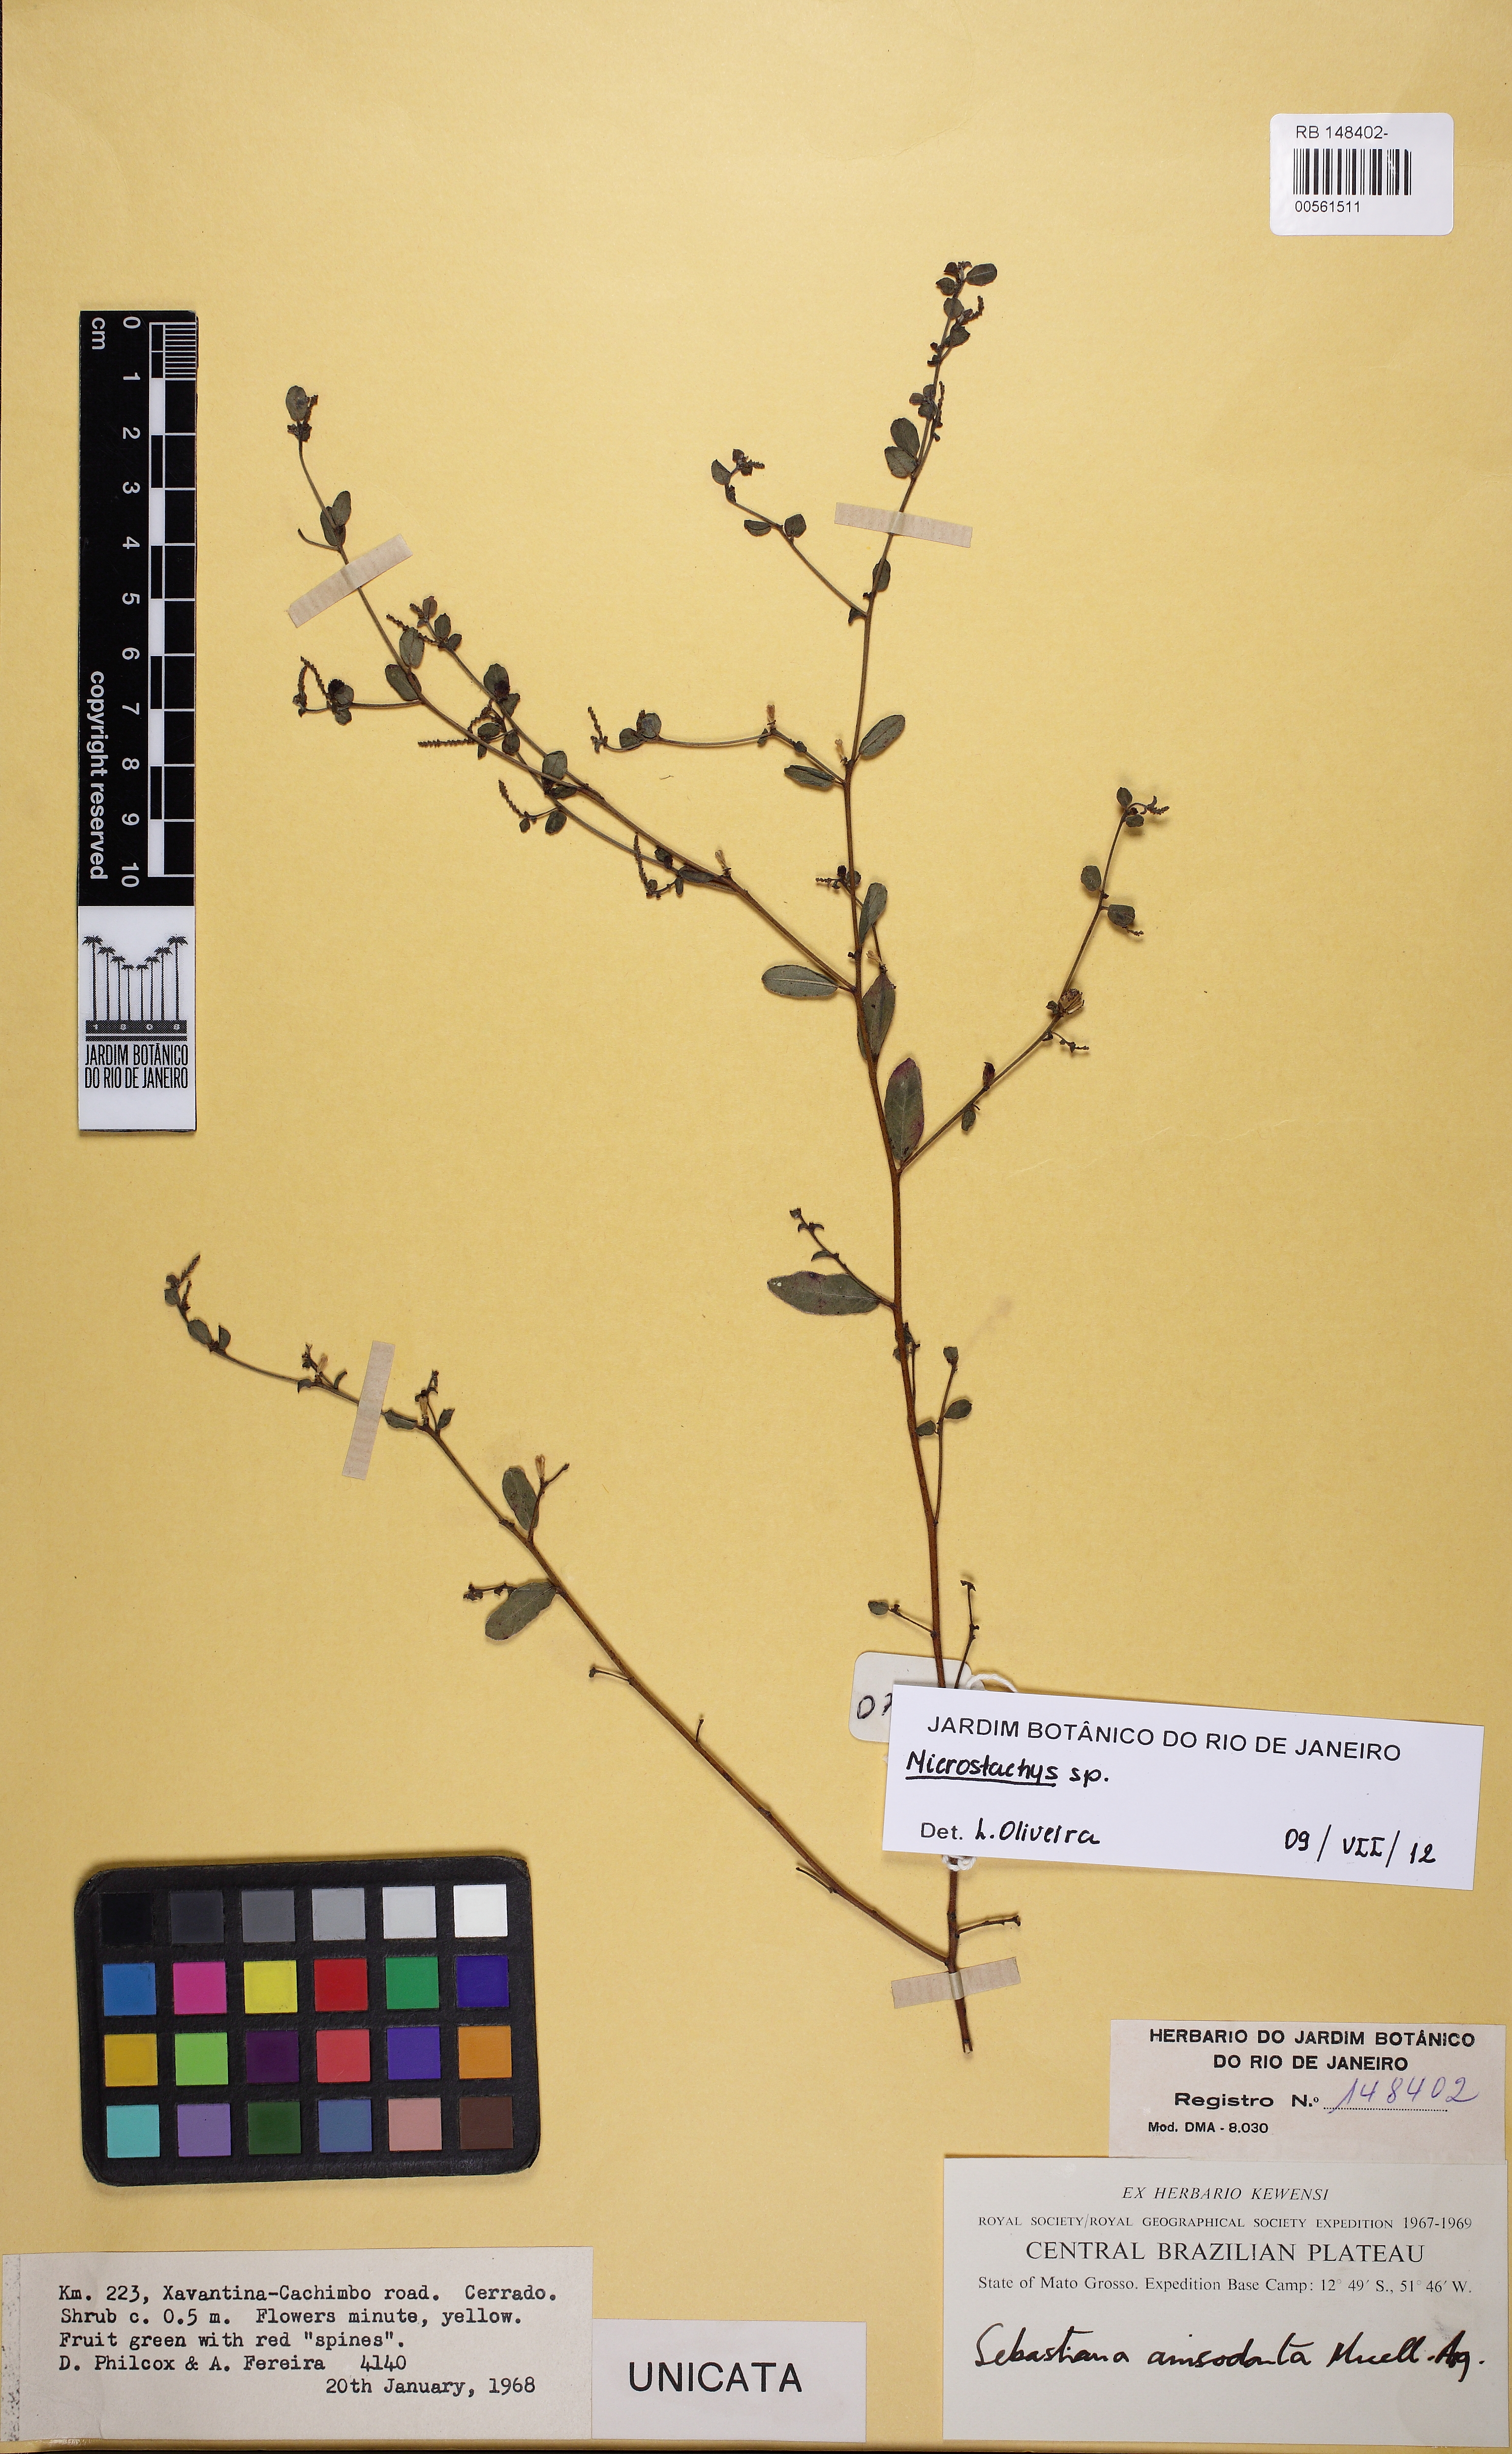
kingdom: Plantae
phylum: Tracheophyta
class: Magnoliopsida
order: Malpighiales
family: Euphorbiaceae
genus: Microstachys
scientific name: Microstachys
